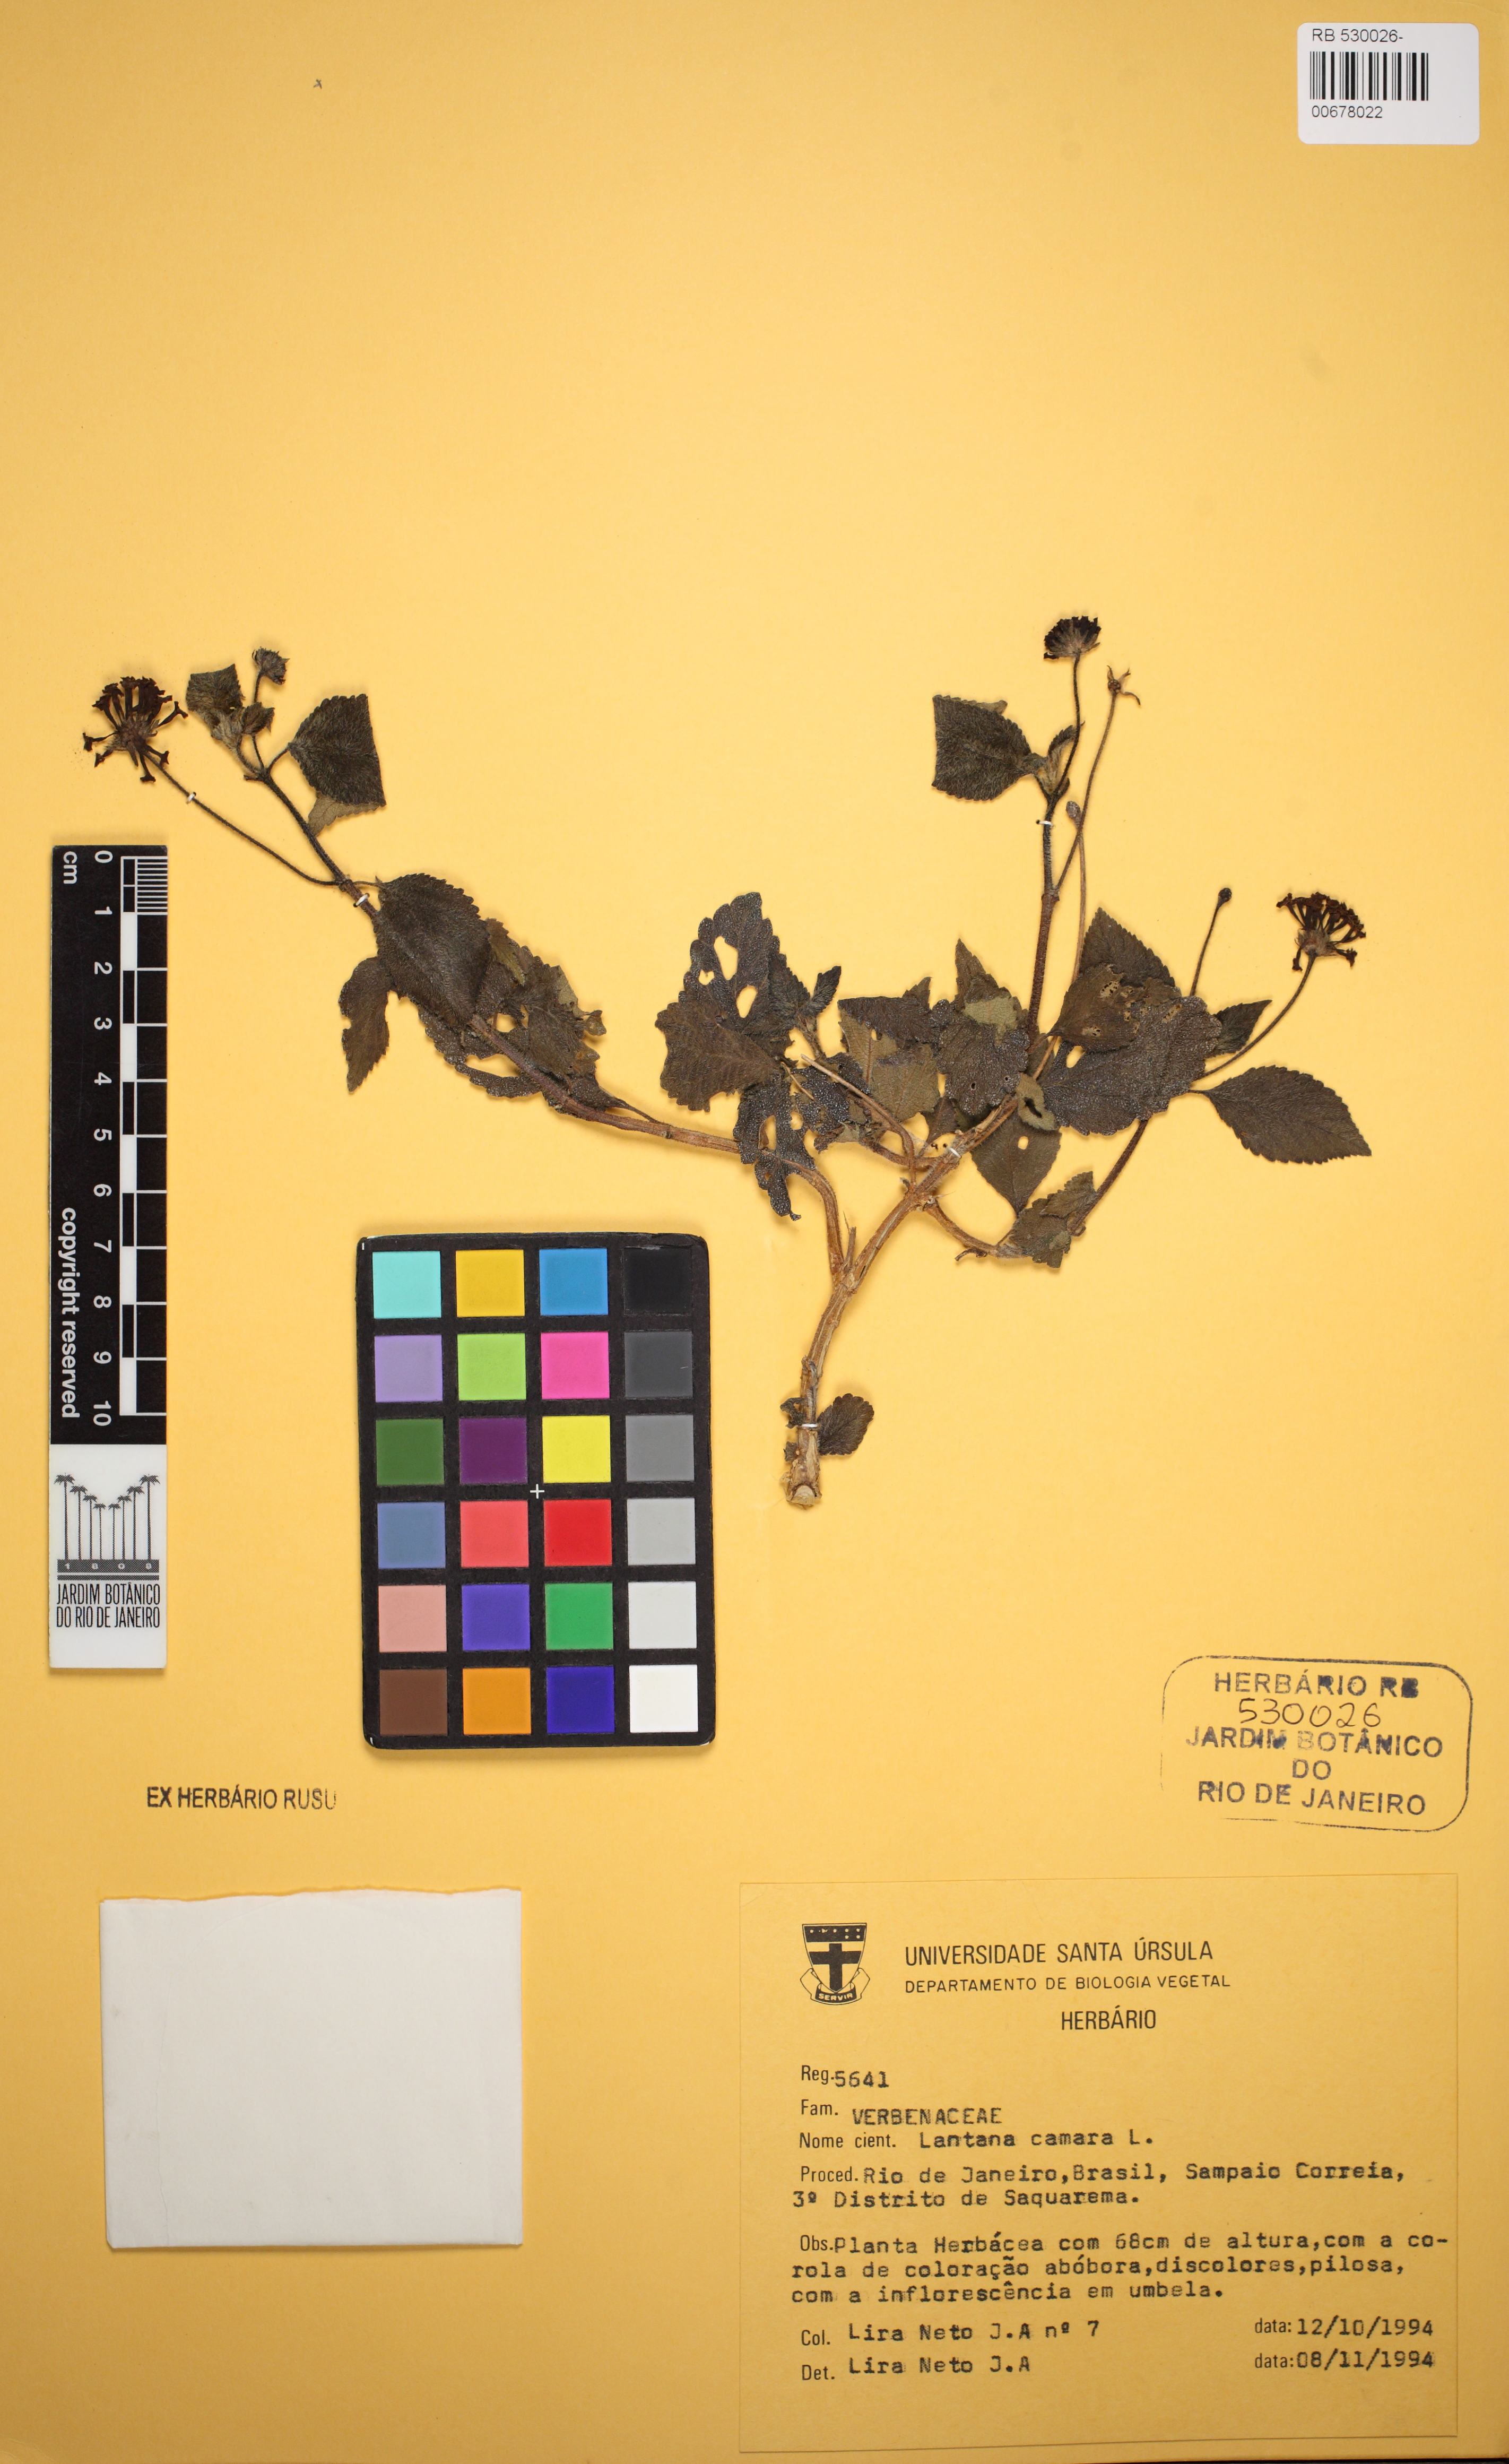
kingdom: Plantae
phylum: Tracheophyta
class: Magnoliopsida
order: Lamiales
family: Verbenaceae
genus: Lantana
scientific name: Lantana camara
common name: Lantana
